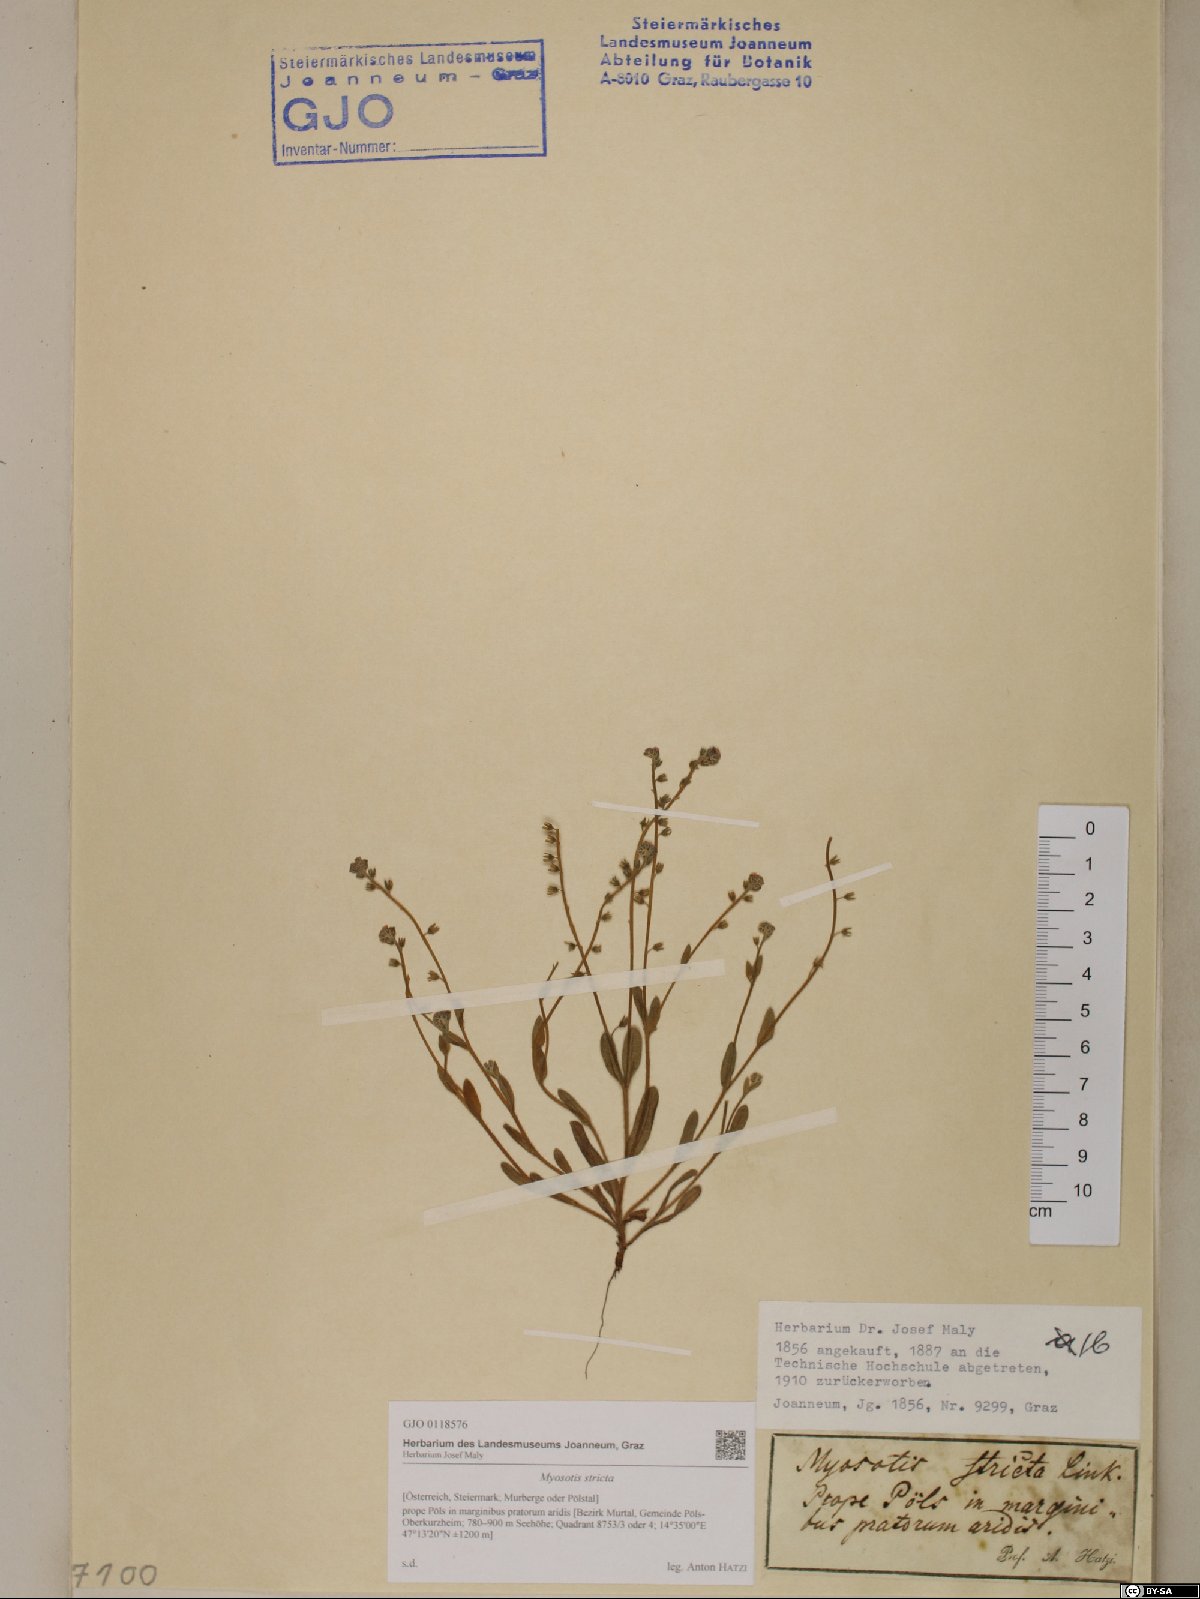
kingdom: Plantae
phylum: Tracheophyta
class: Magnoliopsida
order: Boraginales
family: Boraginaceae
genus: Myosotis
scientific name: Myosotis stricta
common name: Strict forget-me-not
